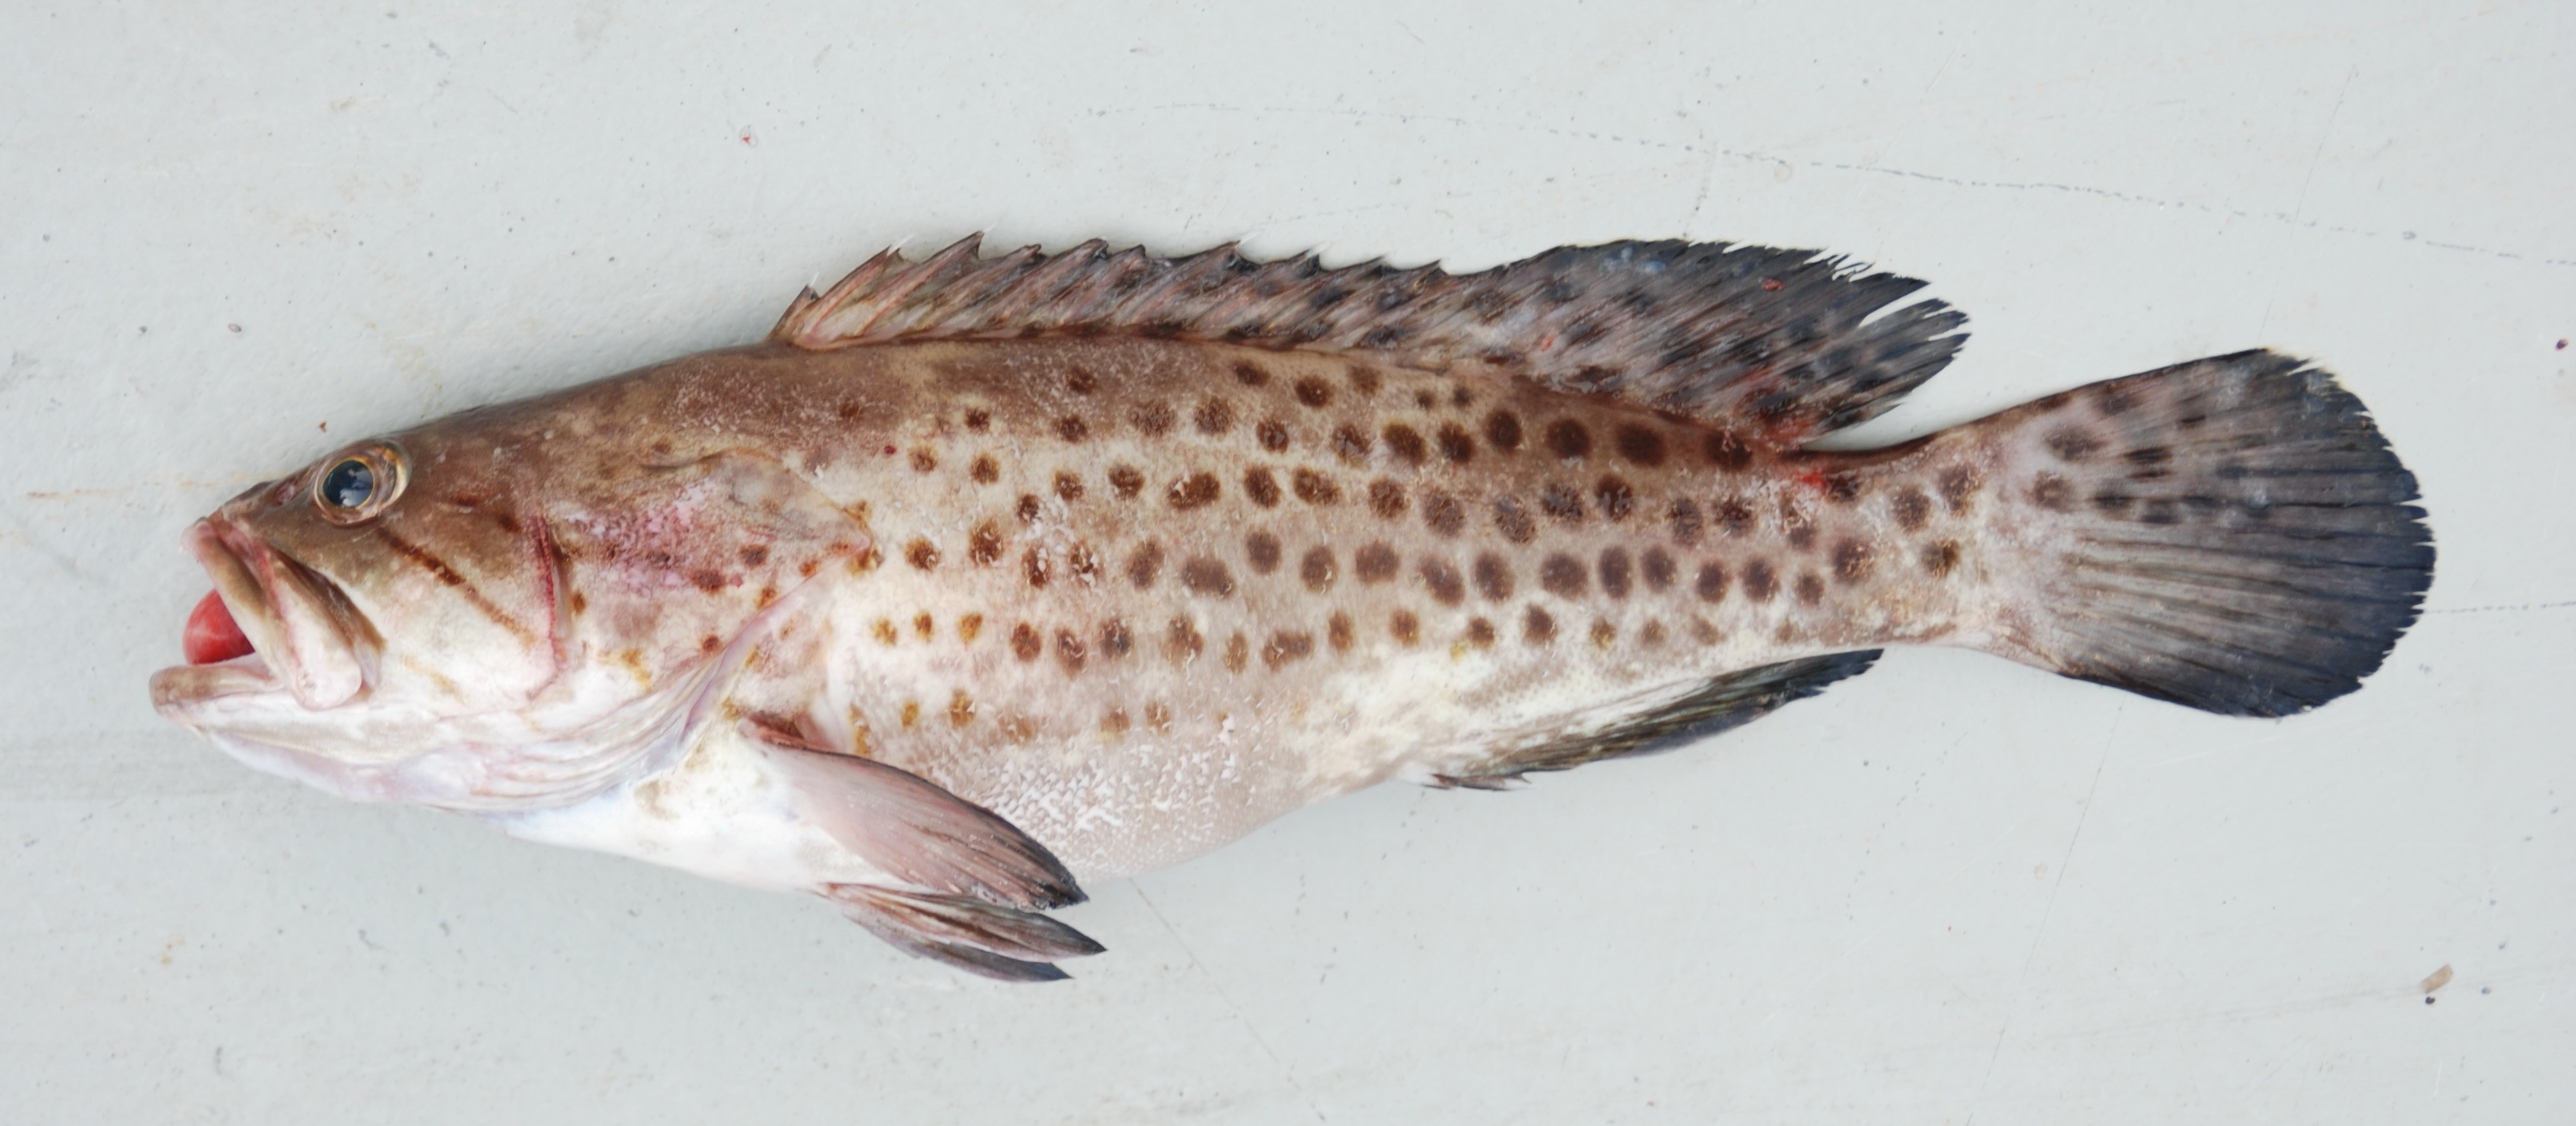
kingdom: Animalia
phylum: Chordata
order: Perciformes
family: Serranidae
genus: Epinephelus
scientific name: Epinephelus andersoni
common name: Catface rockcod
